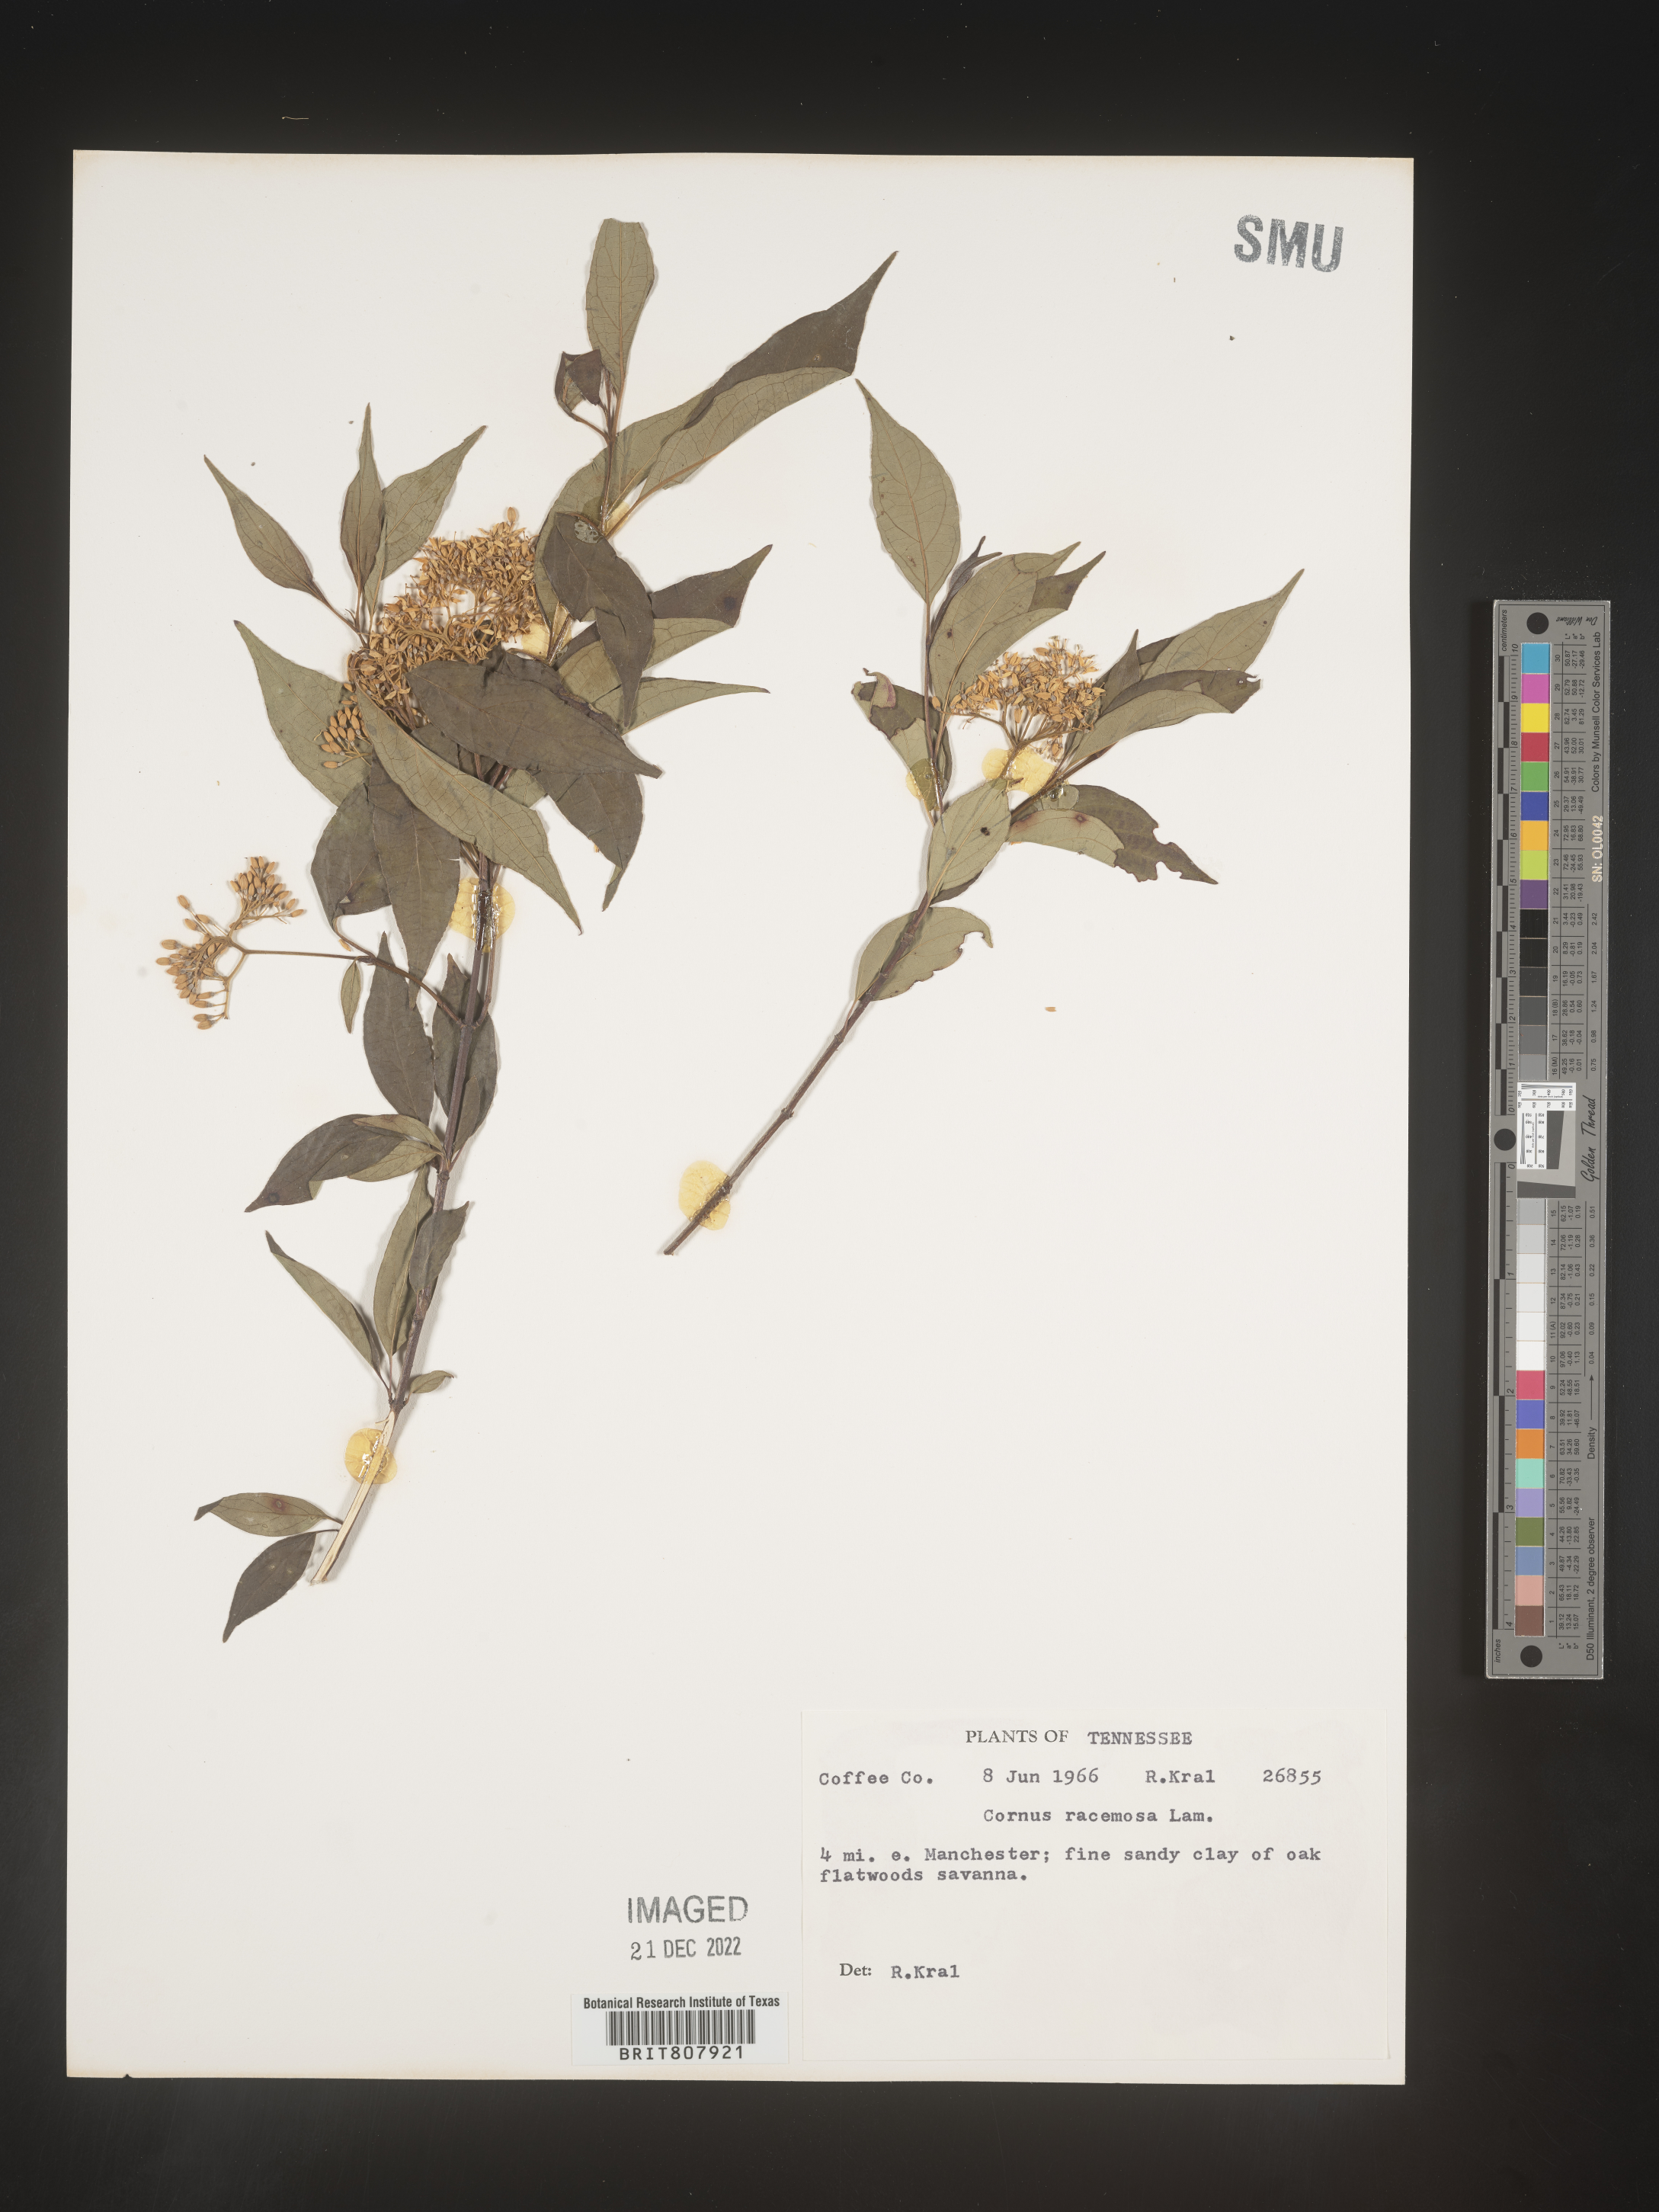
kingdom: Plantae
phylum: Tracheophyta
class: Magnoliopsida
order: Cornales
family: Cornaceae
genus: Cornus
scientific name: Cornus racemosa
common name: Panicled dogwood
